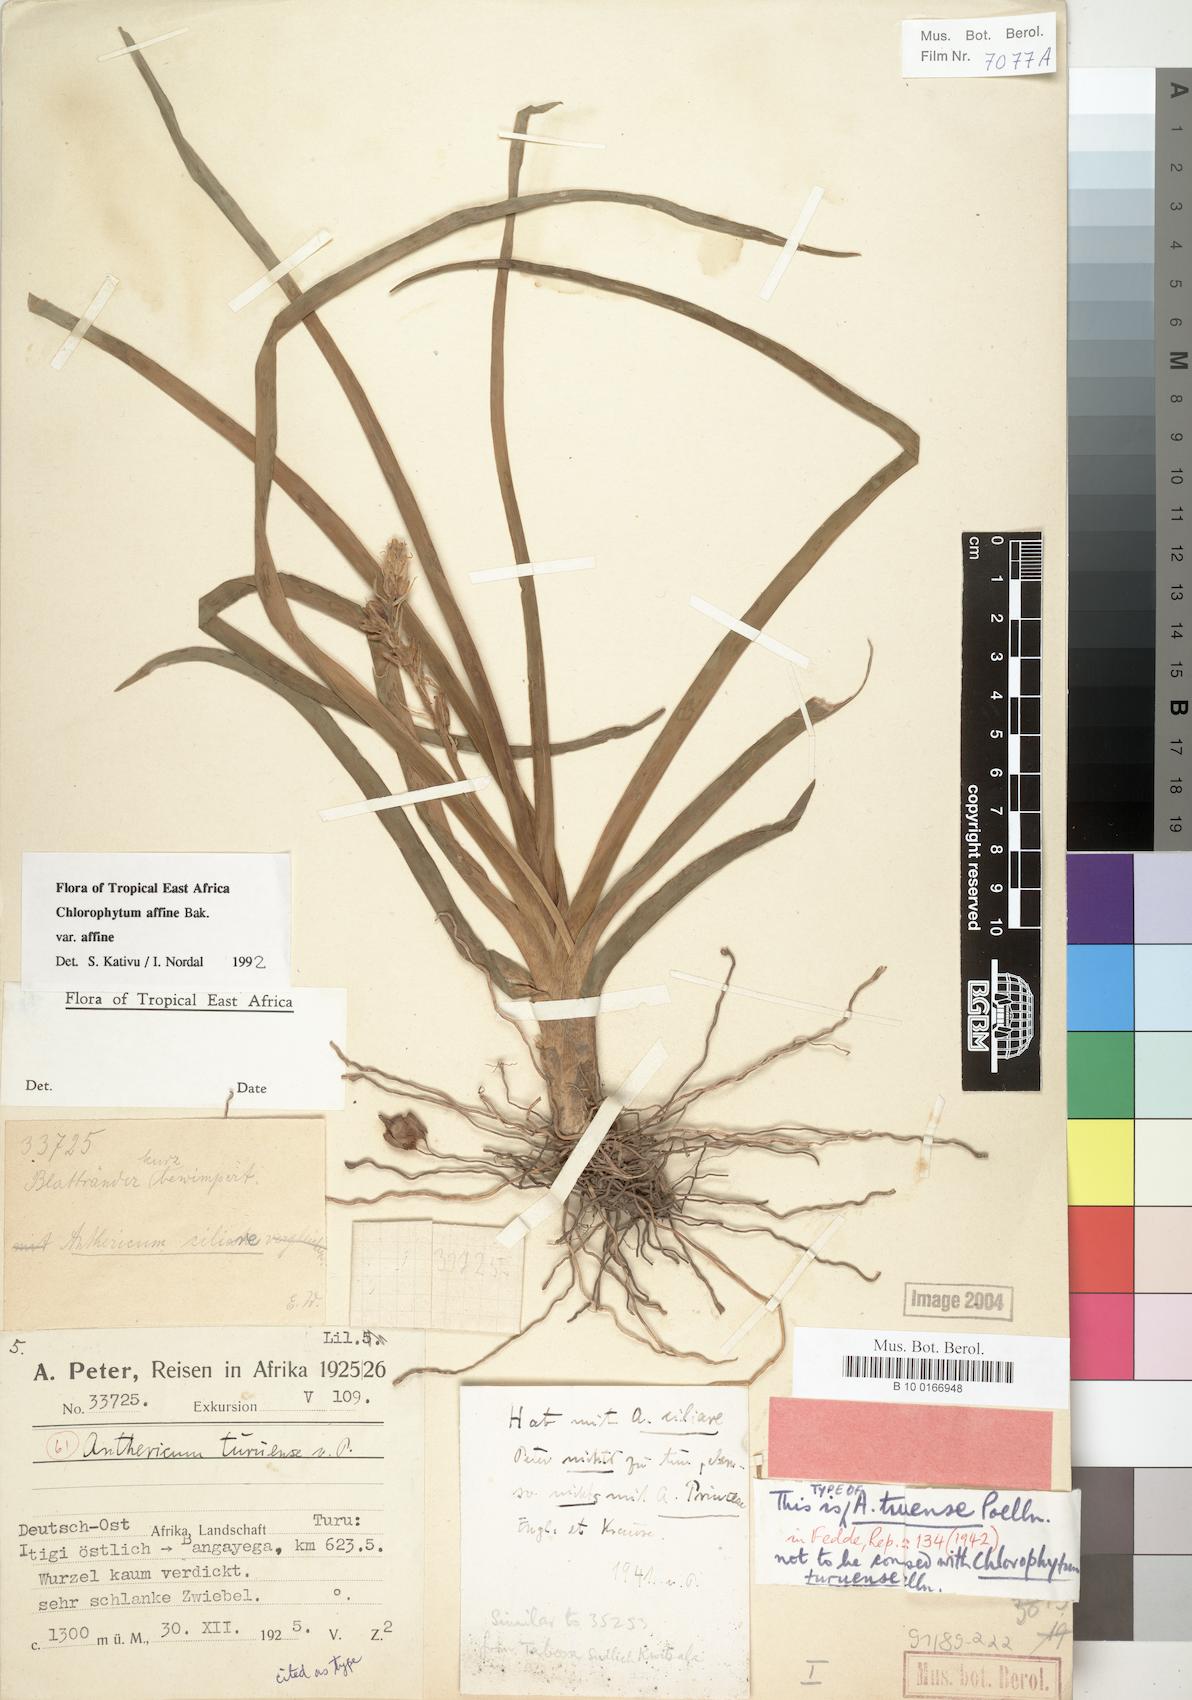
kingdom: Plantae
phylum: Tracheophyta
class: Liliopsida
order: Asparagales
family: Asparagaceae
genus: Chlorophytum
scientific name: Chlorophytum affine
